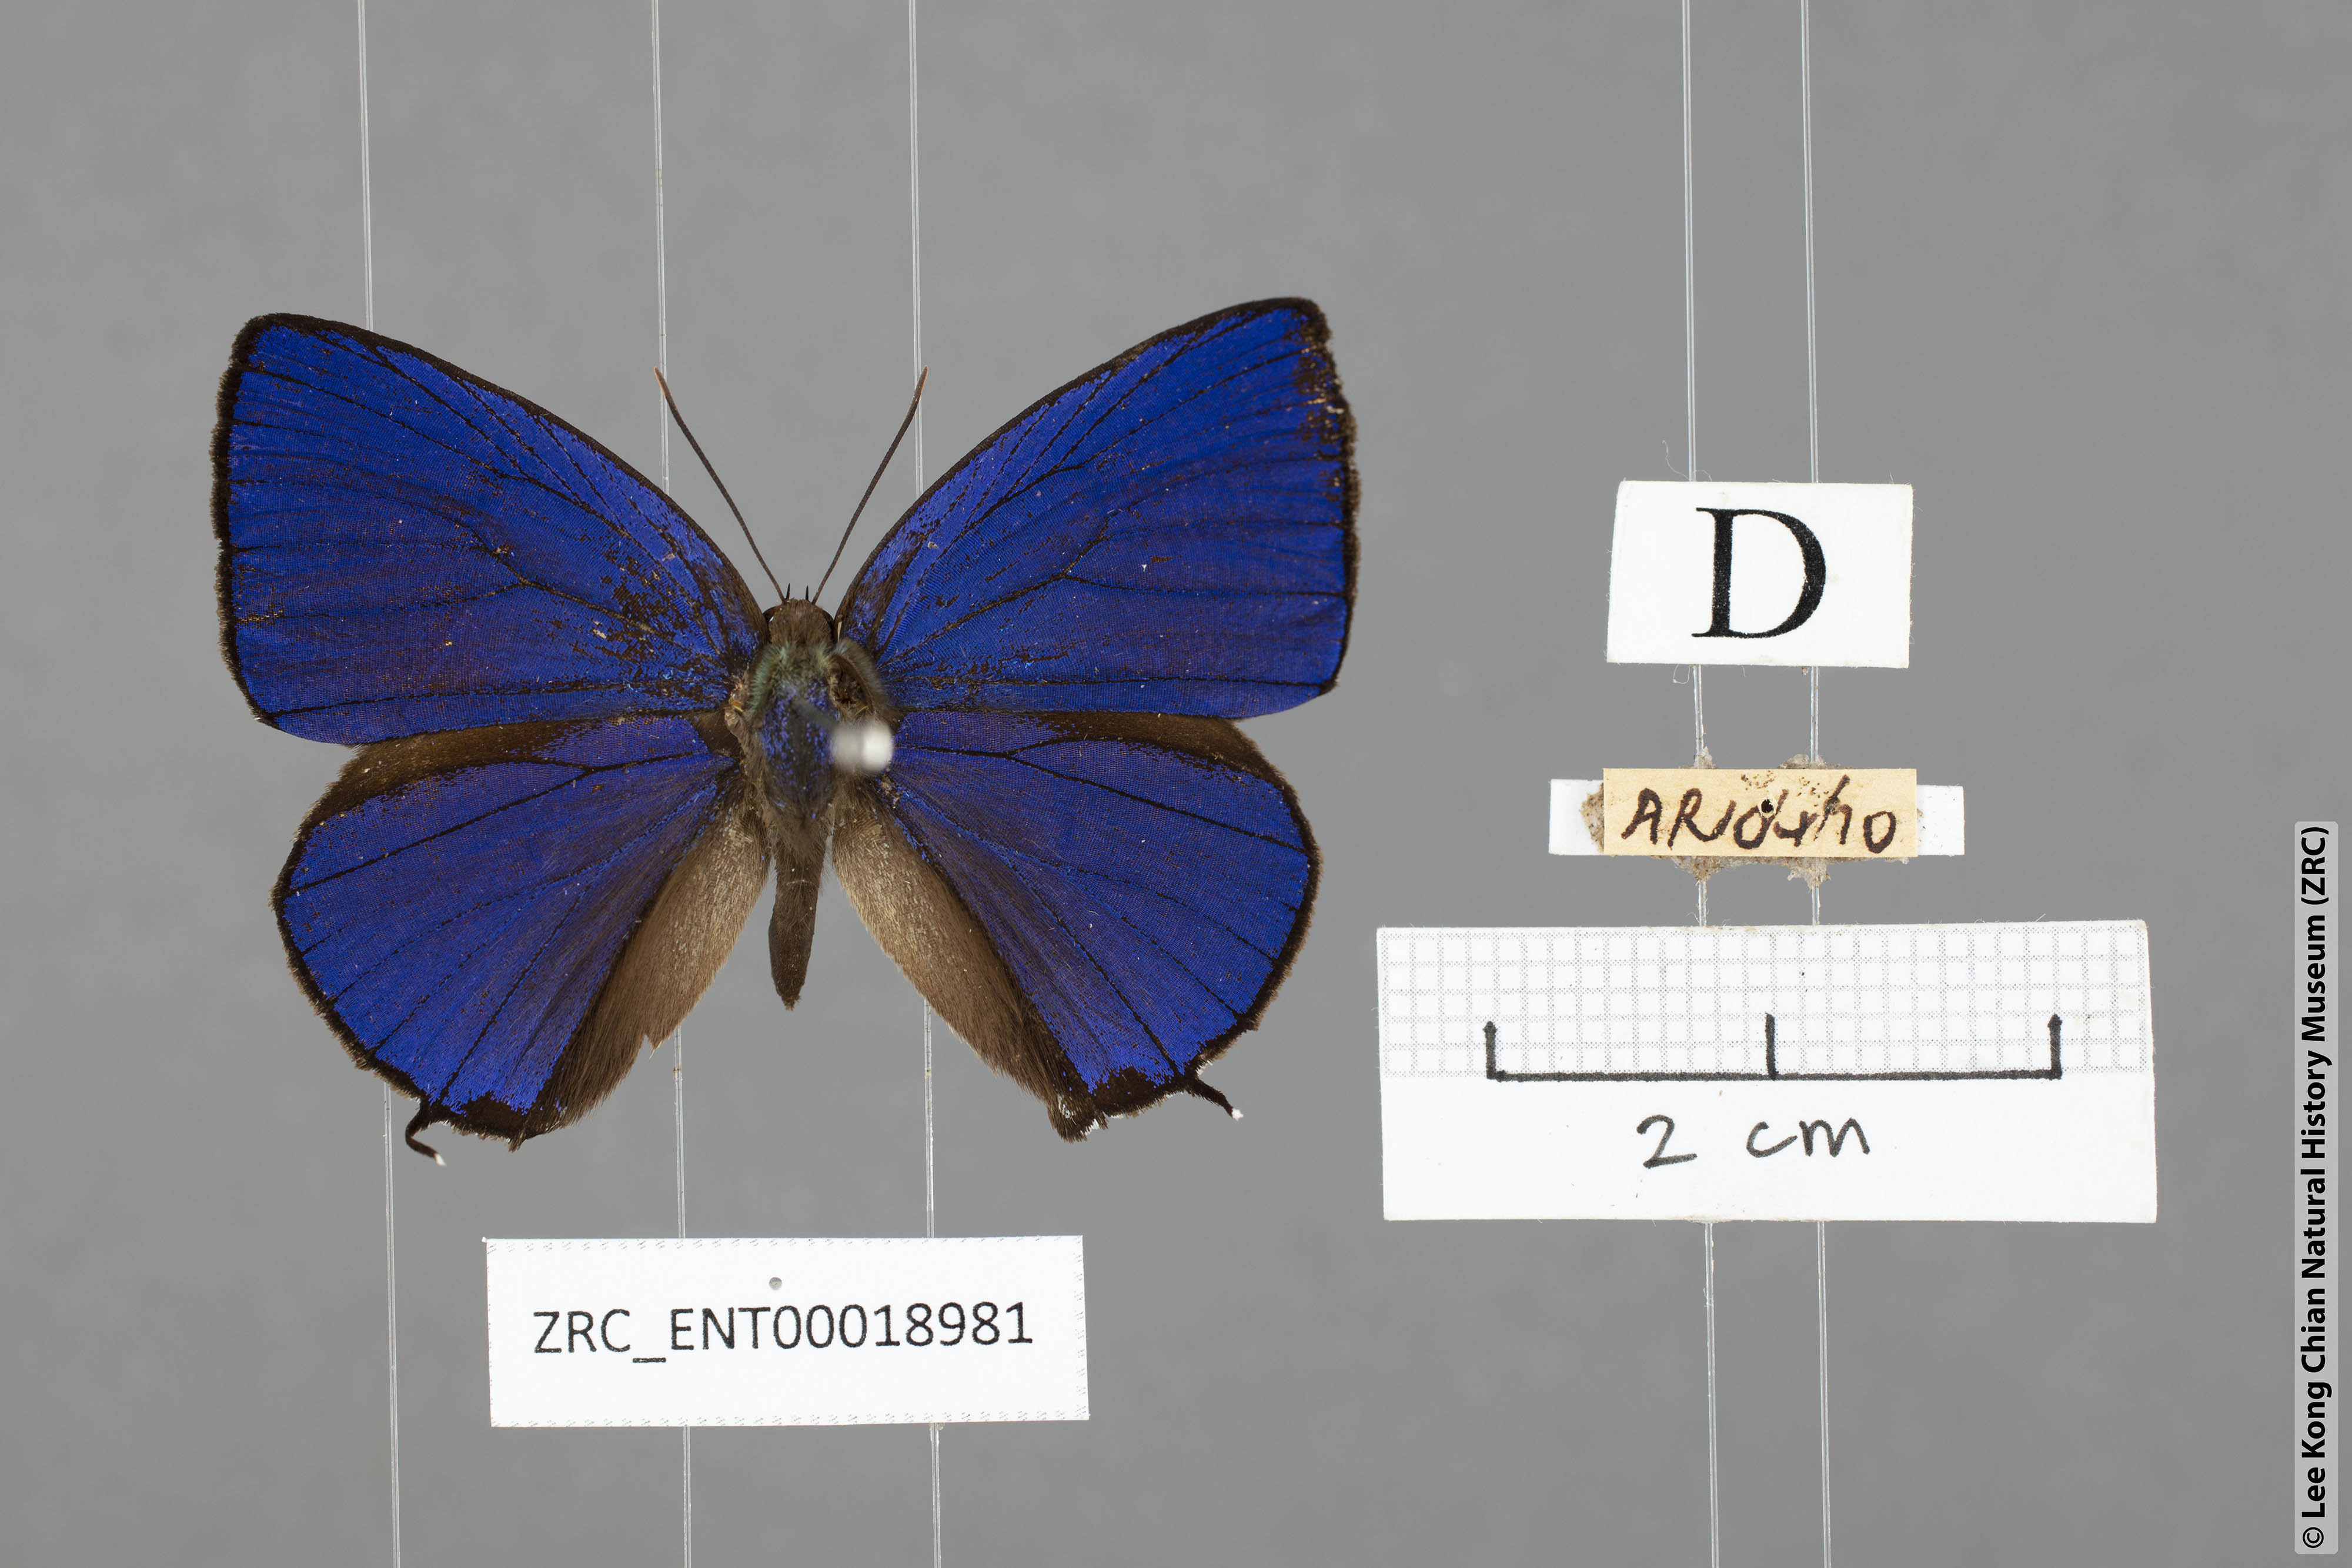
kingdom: Animalia
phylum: Arthropoda
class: Insecta
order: Lepidoptera
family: Lycaenidae
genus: Arhopala
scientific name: Arhopala ace
